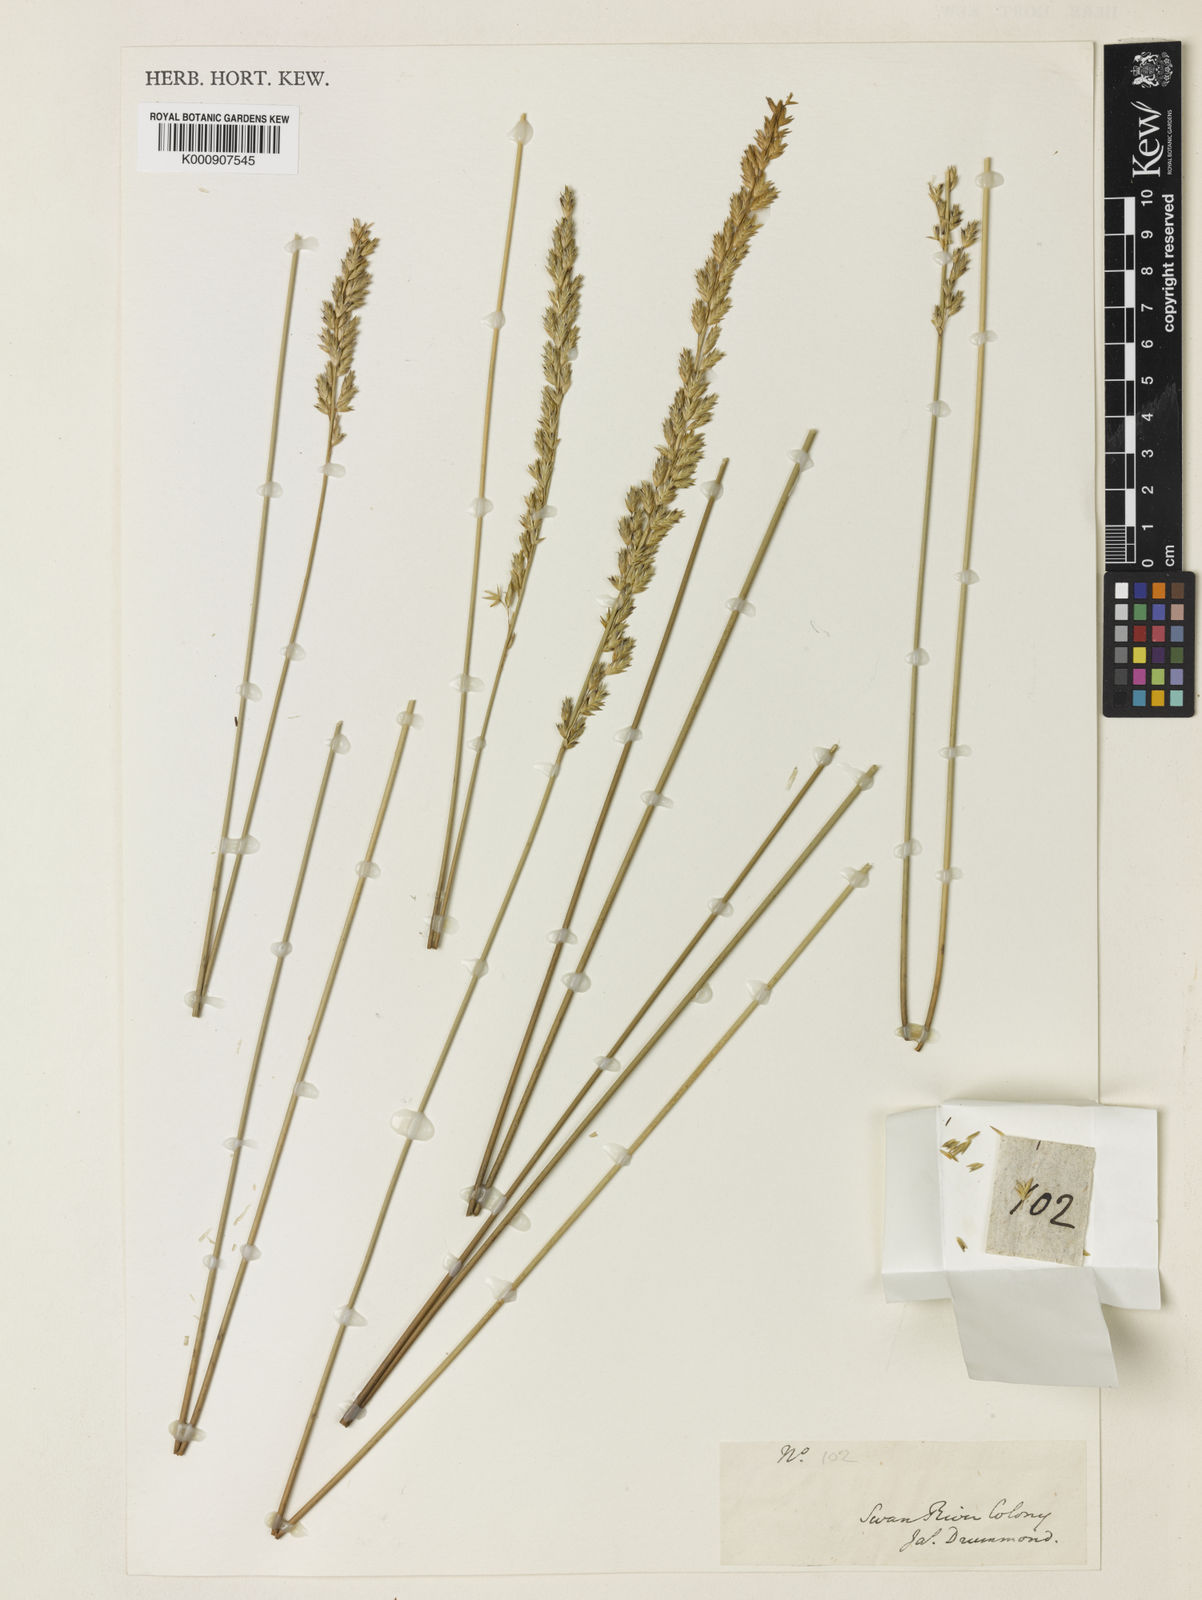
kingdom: Plantae
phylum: Tracheophyta
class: Liliopsida
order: Poales
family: Poaceae
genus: Spartochloa
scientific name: Spartochloa scirpoidea
